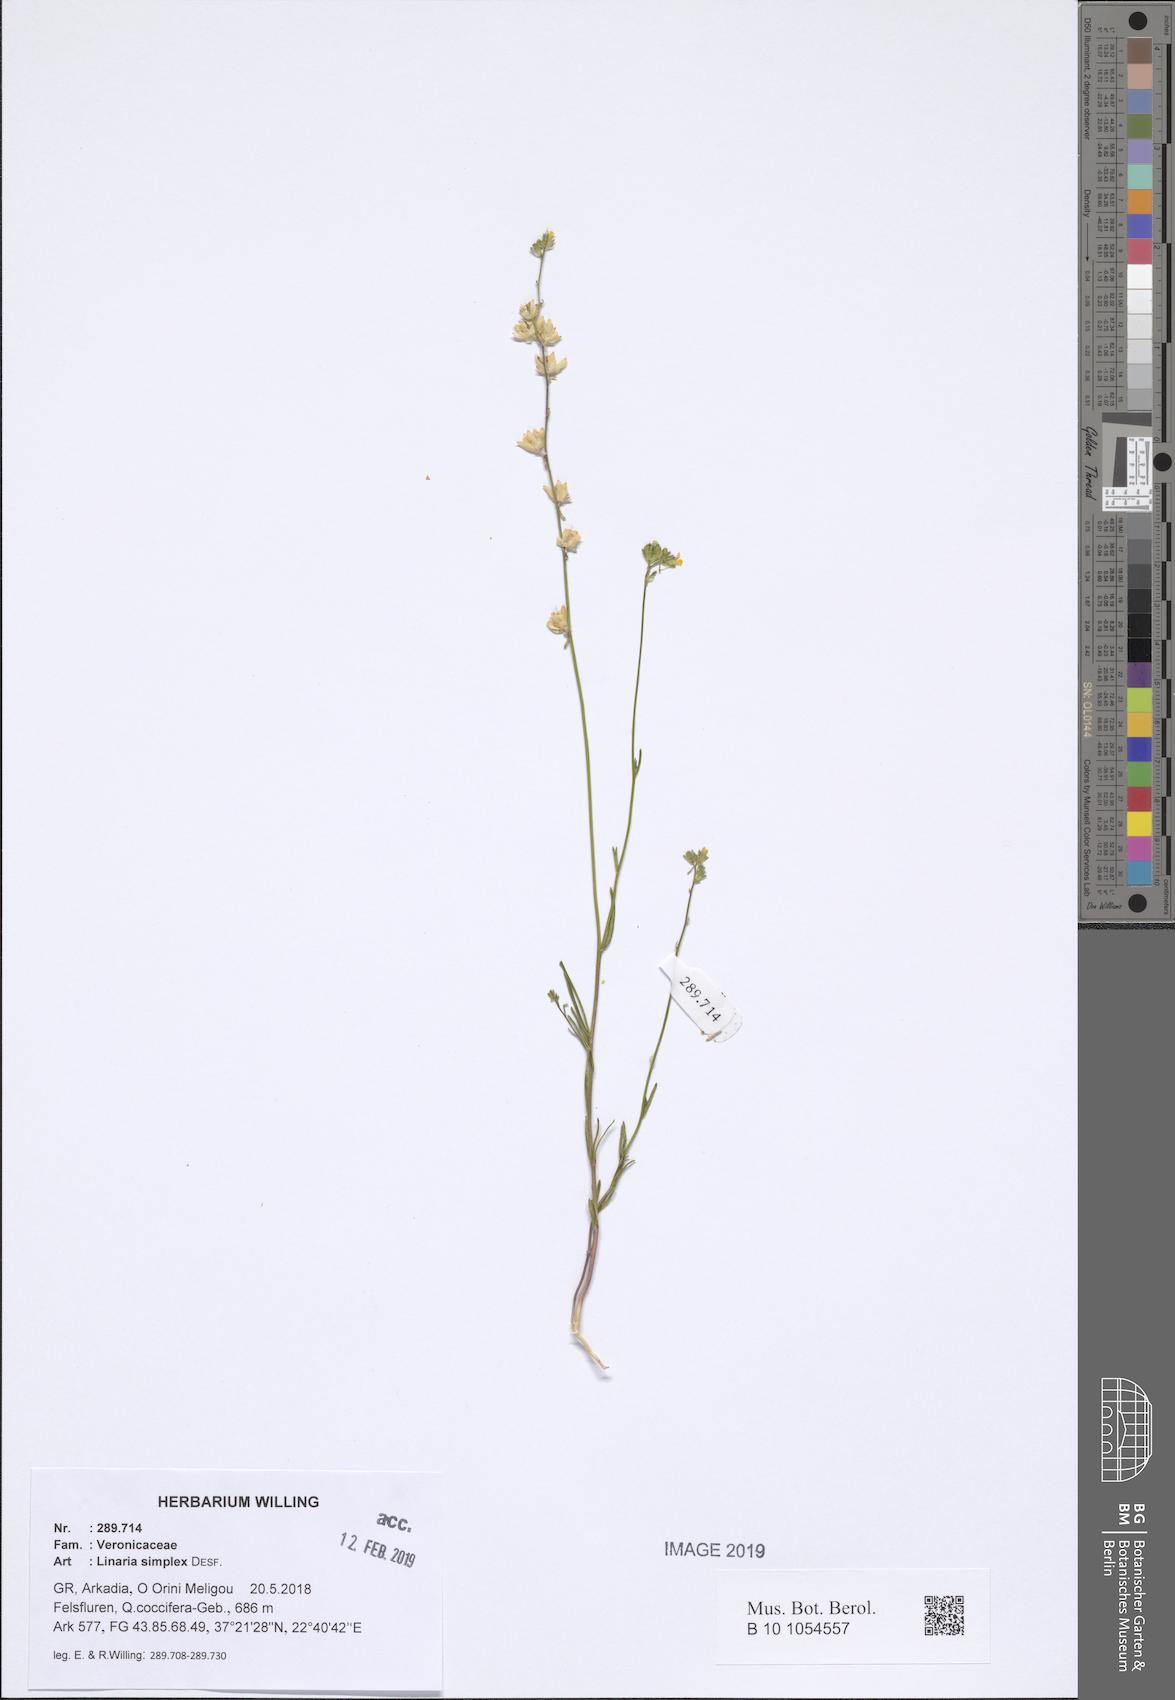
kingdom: Plantae
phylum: Tracheophyta
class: Magnoliopsida
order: Lamiales
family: Plantaginaceae
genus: Linaria
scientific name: Linaria simplex
